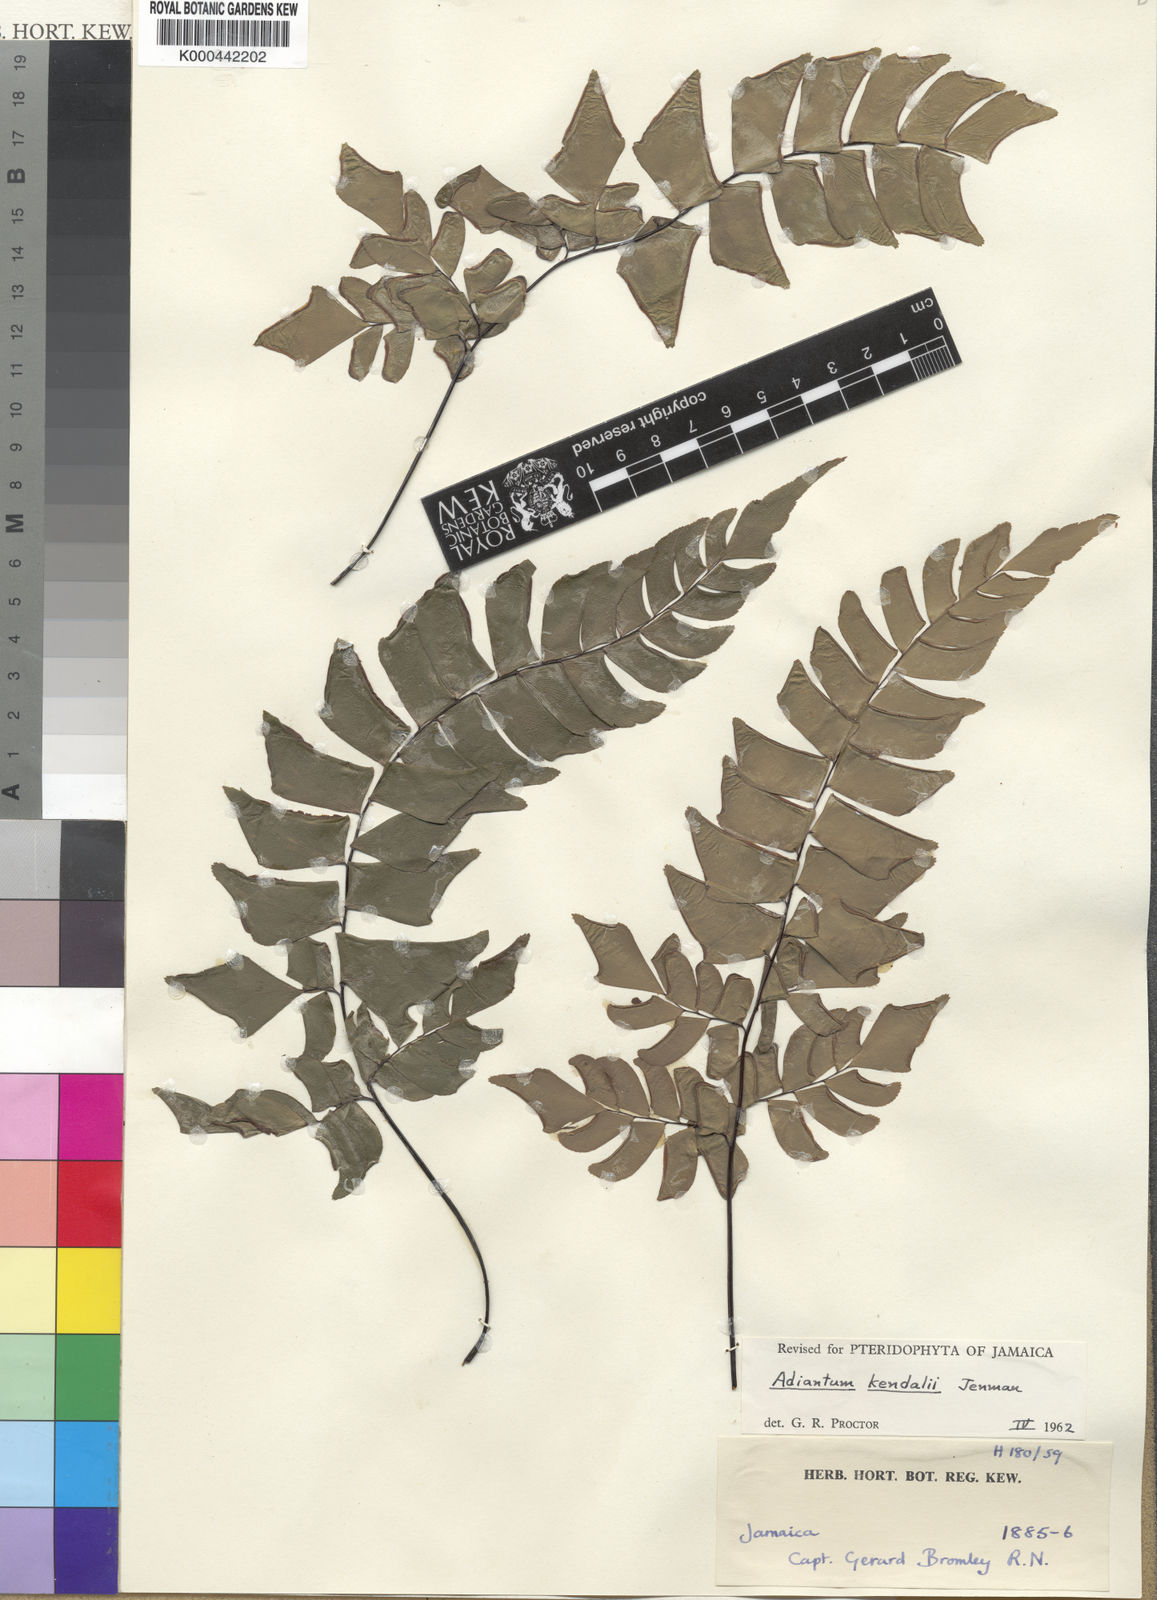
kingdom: Plantae
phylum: Tracheophyta
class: Polypodiopsida
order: Polypodiales
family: Pteridaceae
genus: Adiantum
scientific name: Adiantum kendalii
